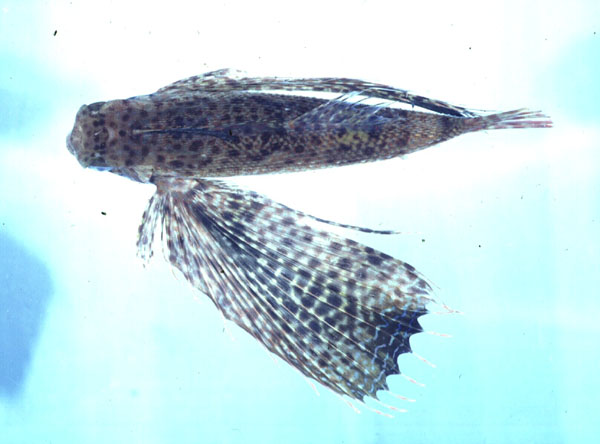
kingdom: Animalia
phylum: Chordata
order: Scorpaeniformes
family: Dactylopteridae
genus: Dactyloptena
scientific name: Dactyloptena orientalis
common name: Flying gurnard
